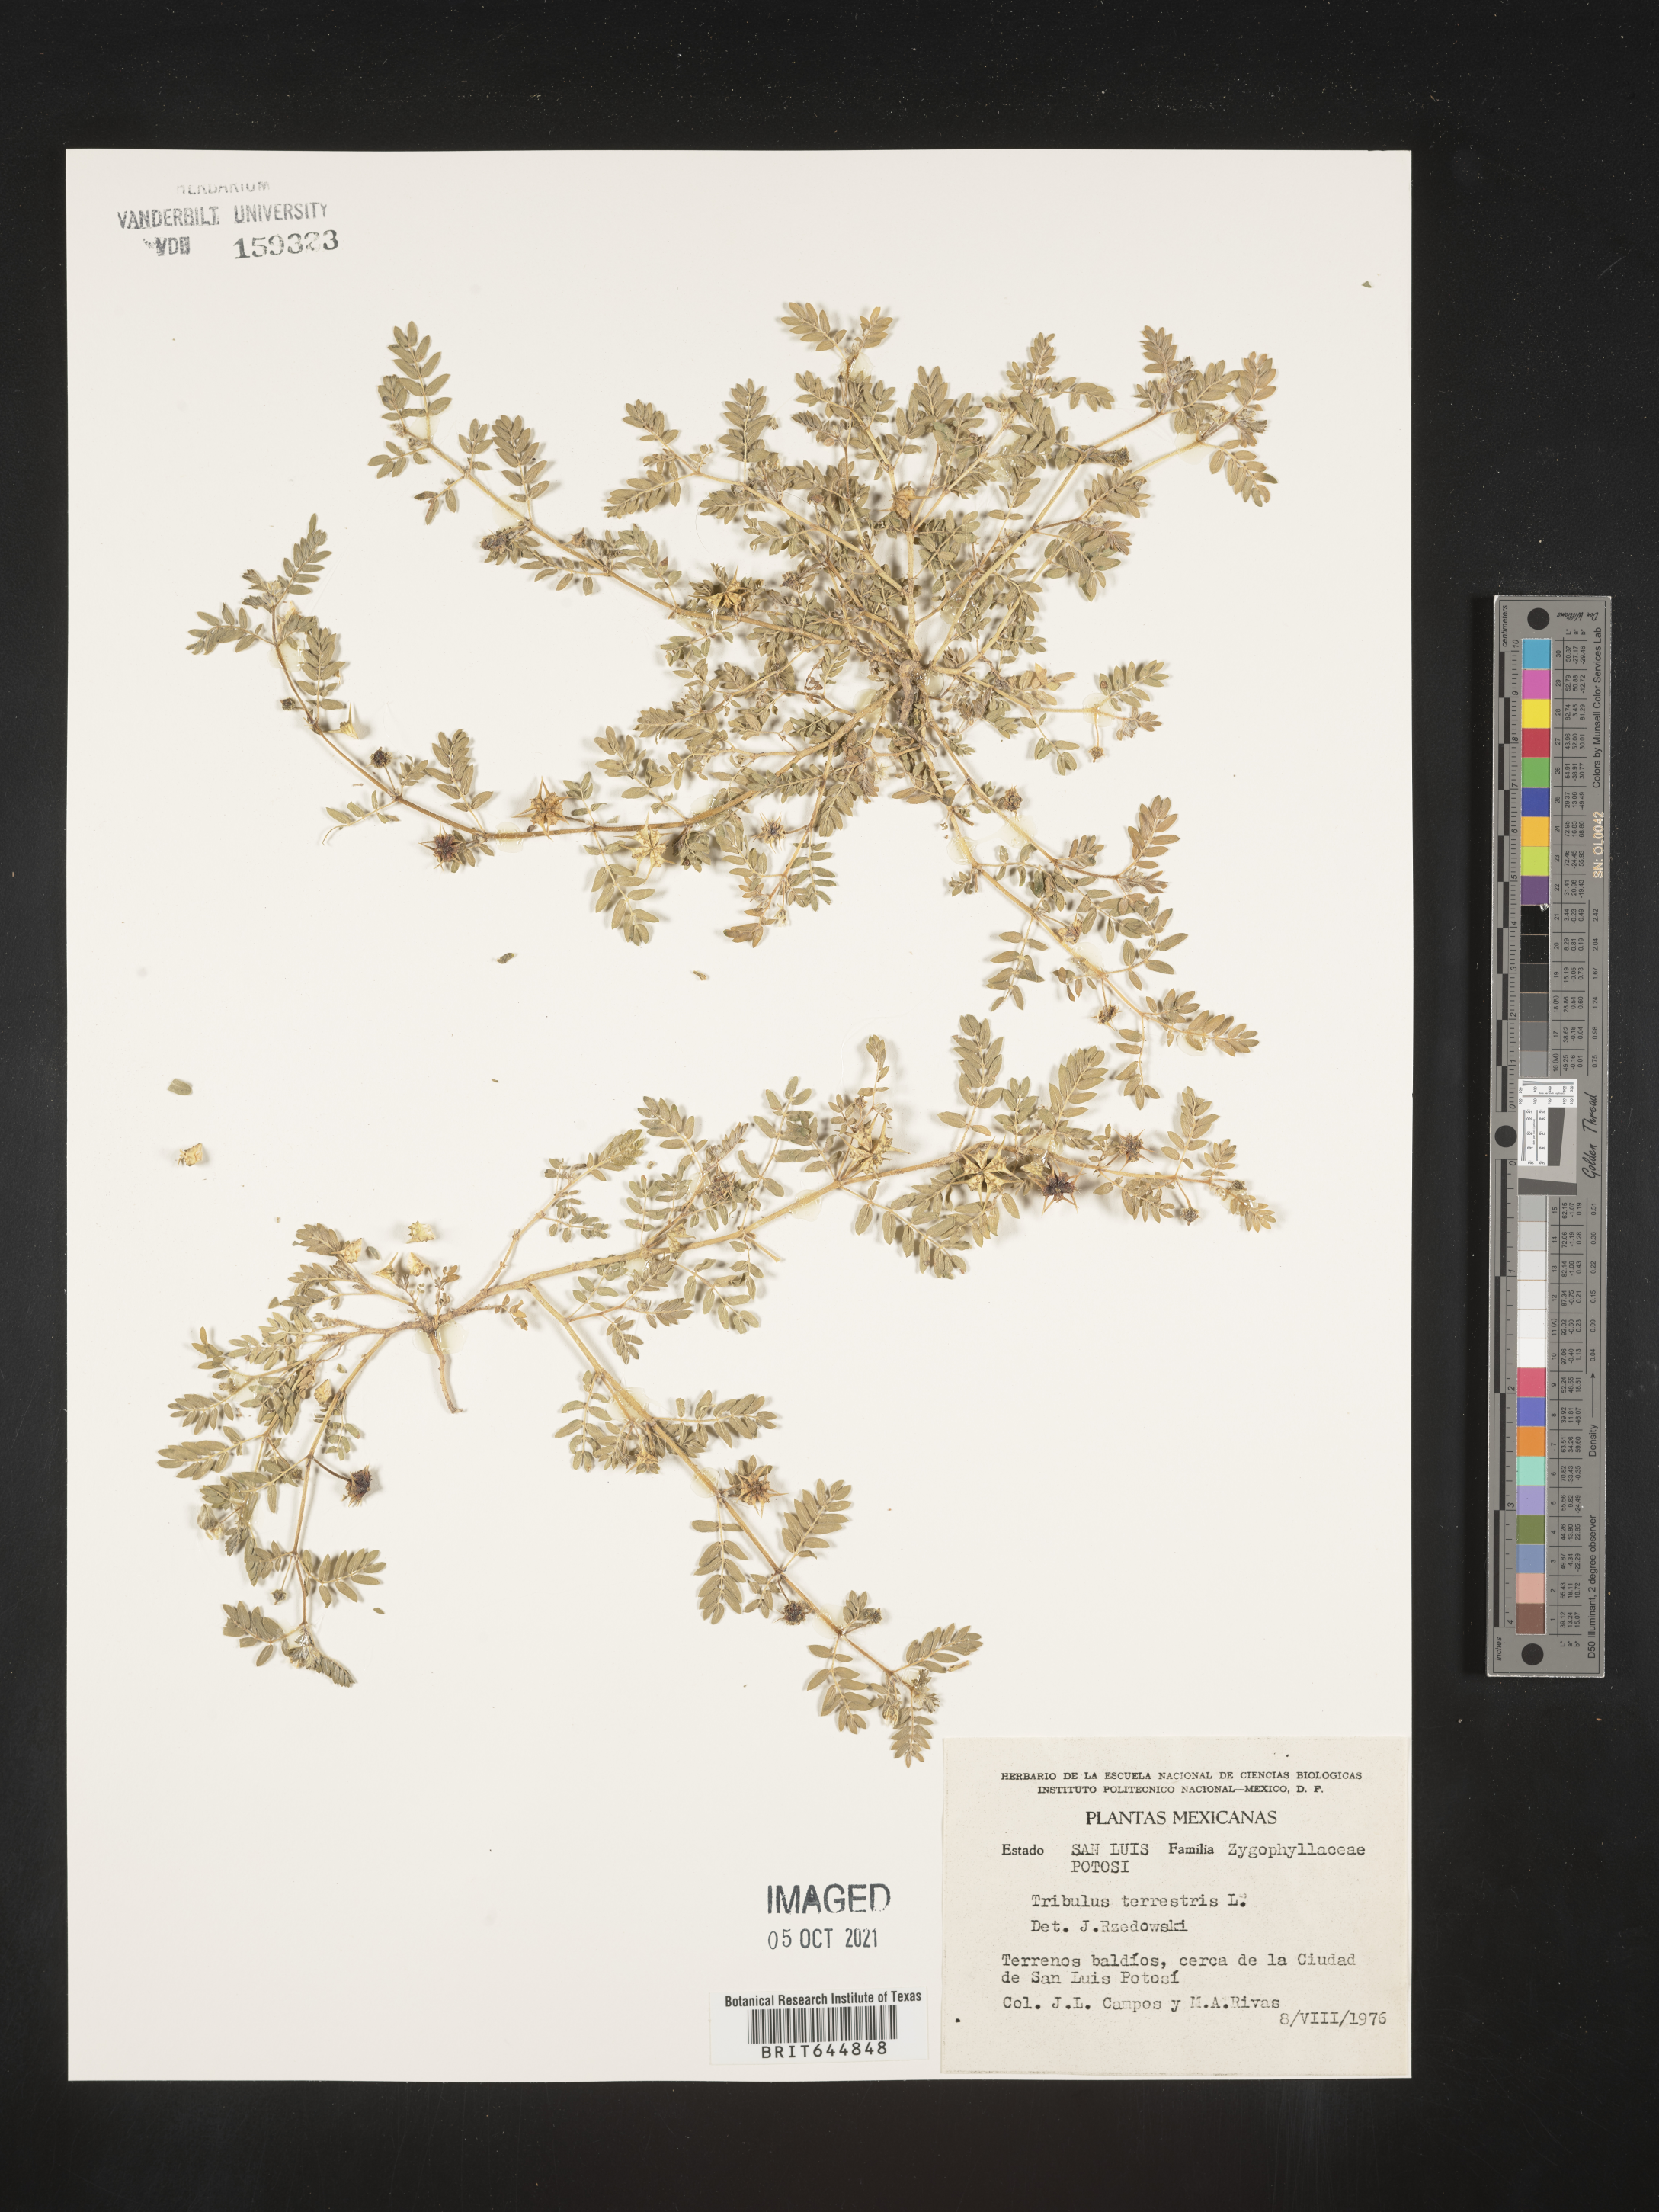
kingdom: Plantae
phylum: Tracheophyta
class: Magnoliopsida
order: Zygophyllales
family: Zygophyllaceae
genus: Tribulus
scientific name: Tribulus
